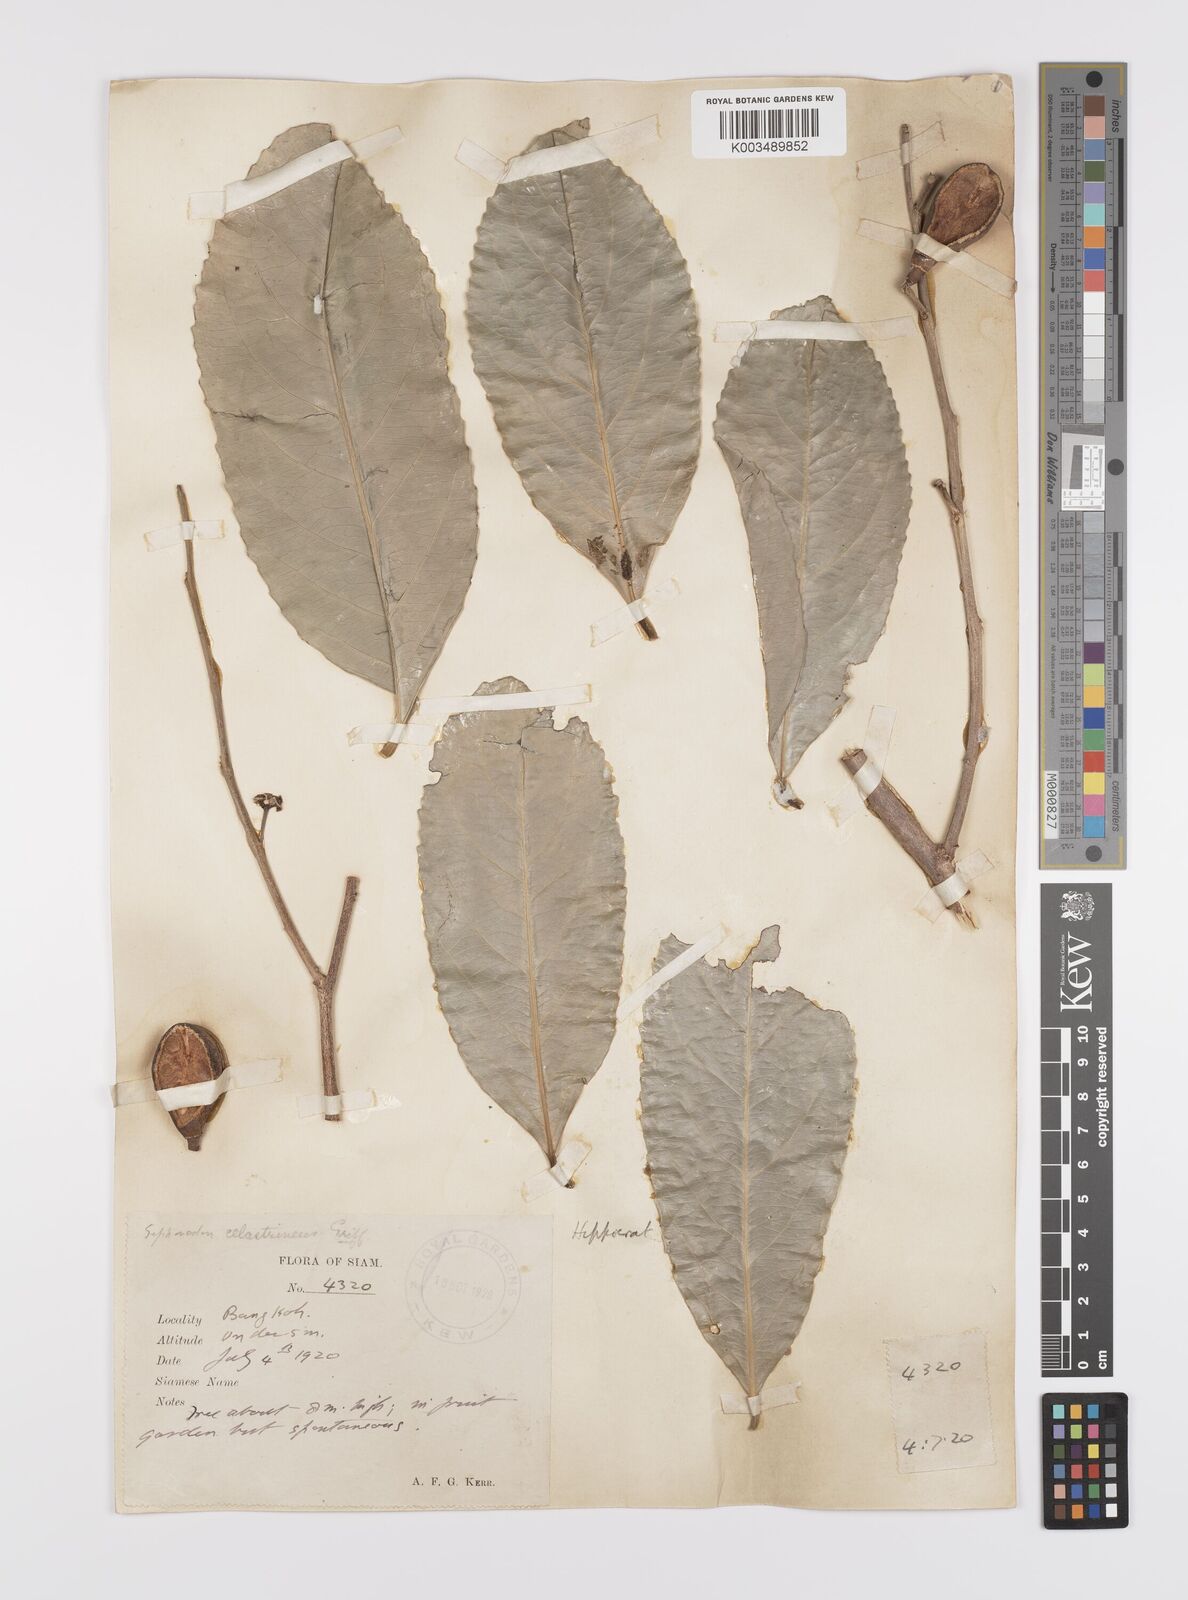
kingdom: Plantae
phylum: Tracheophyta
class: Magnoliopsida
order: Celastrales
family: Celastraceae
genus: Siphonodon
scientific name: Siphonodon celastrineus
